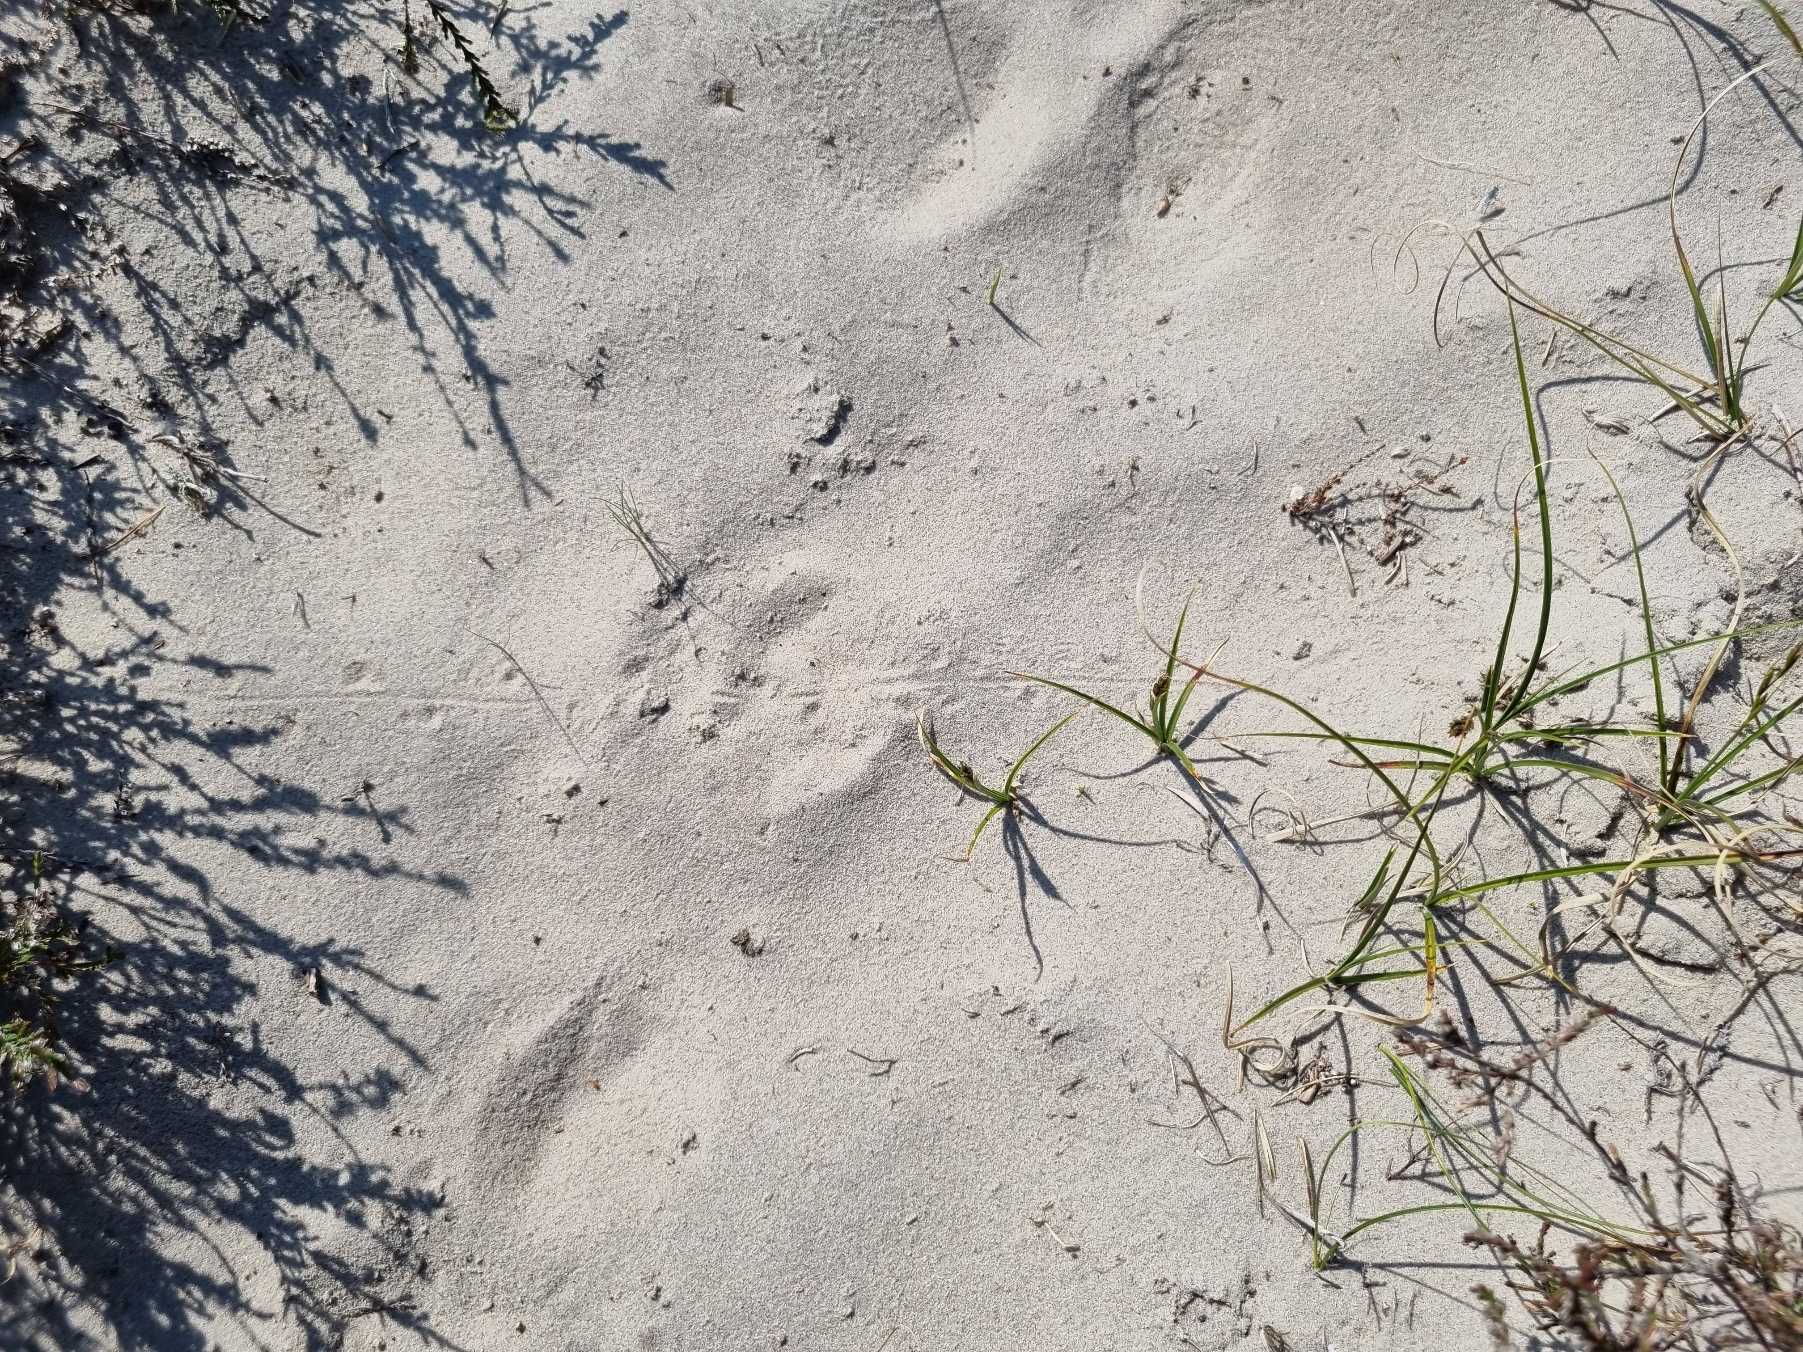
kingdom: Animalia
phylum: Chordata
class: Squamata
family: Lacertidae
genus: Lacerta
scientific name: Lacerta agilis
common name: Markfirben
